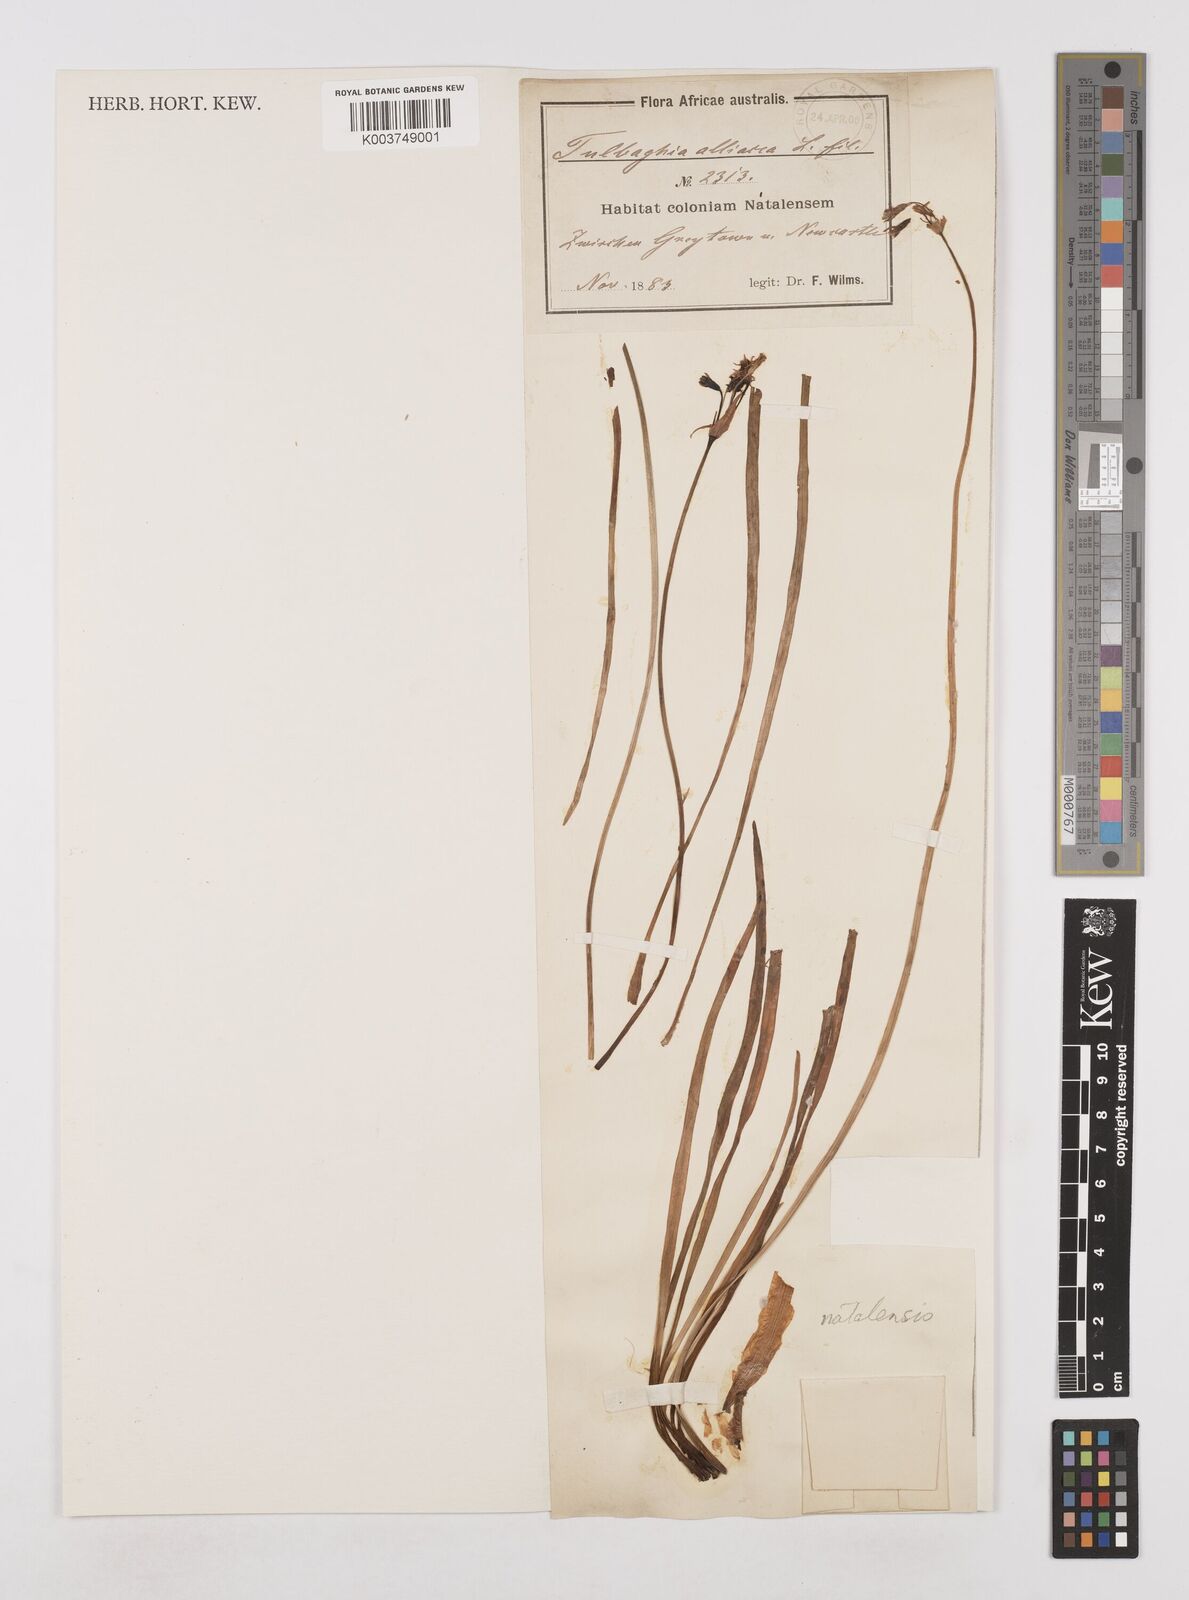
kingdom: Plantae
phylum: Tracheophyta
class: Liliopsida
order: Asparagales
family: Amaryllidaceae
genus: Tulbaghia
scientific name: Tulbaghia natalensis
